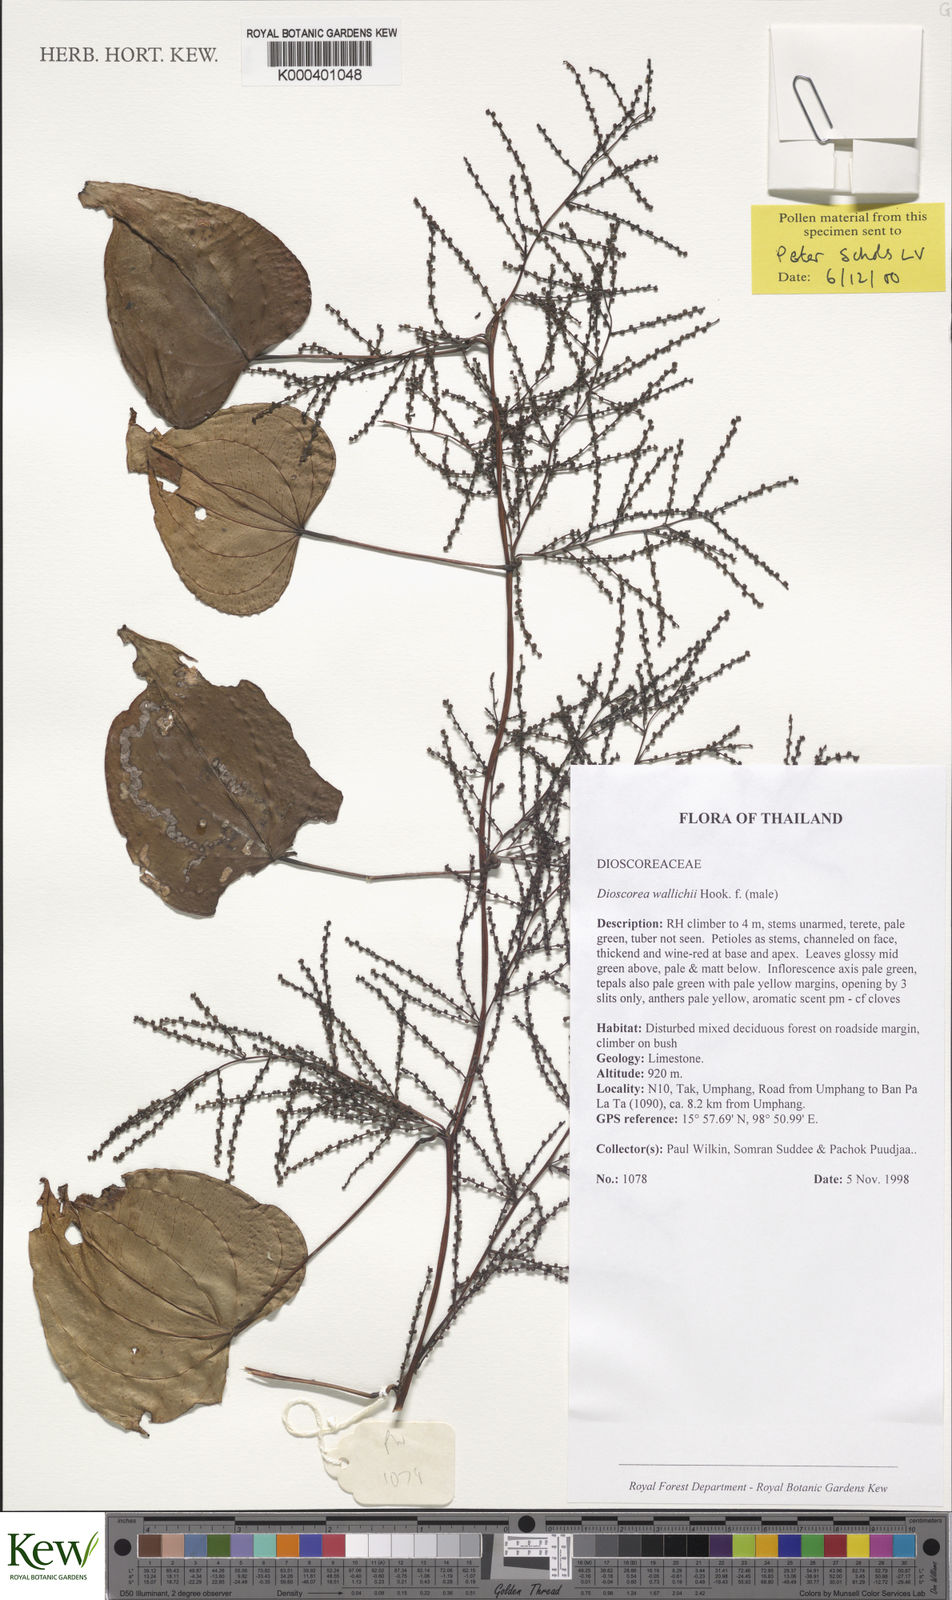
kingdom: Plantae
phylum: Tracheophyta
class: Liliopsida
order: Dioscoreales
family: Dioscoreaceae
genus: Dioscorea
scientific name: Dioscorea wallichii
